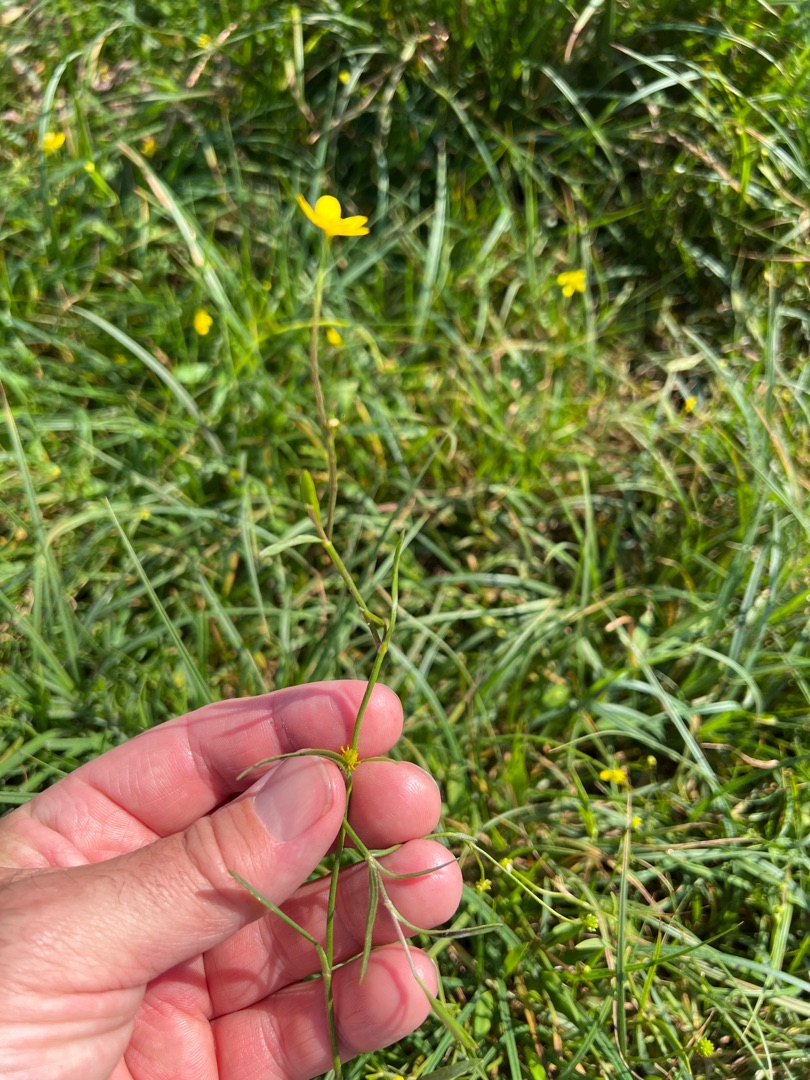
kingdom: Plantae
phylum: Tracheophyta
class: Magnoliopsida
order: Ranunculales
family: Ranunculaceae
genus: Ranunculus
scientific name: Ranunculus flammula
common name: Kær-ranunkel
